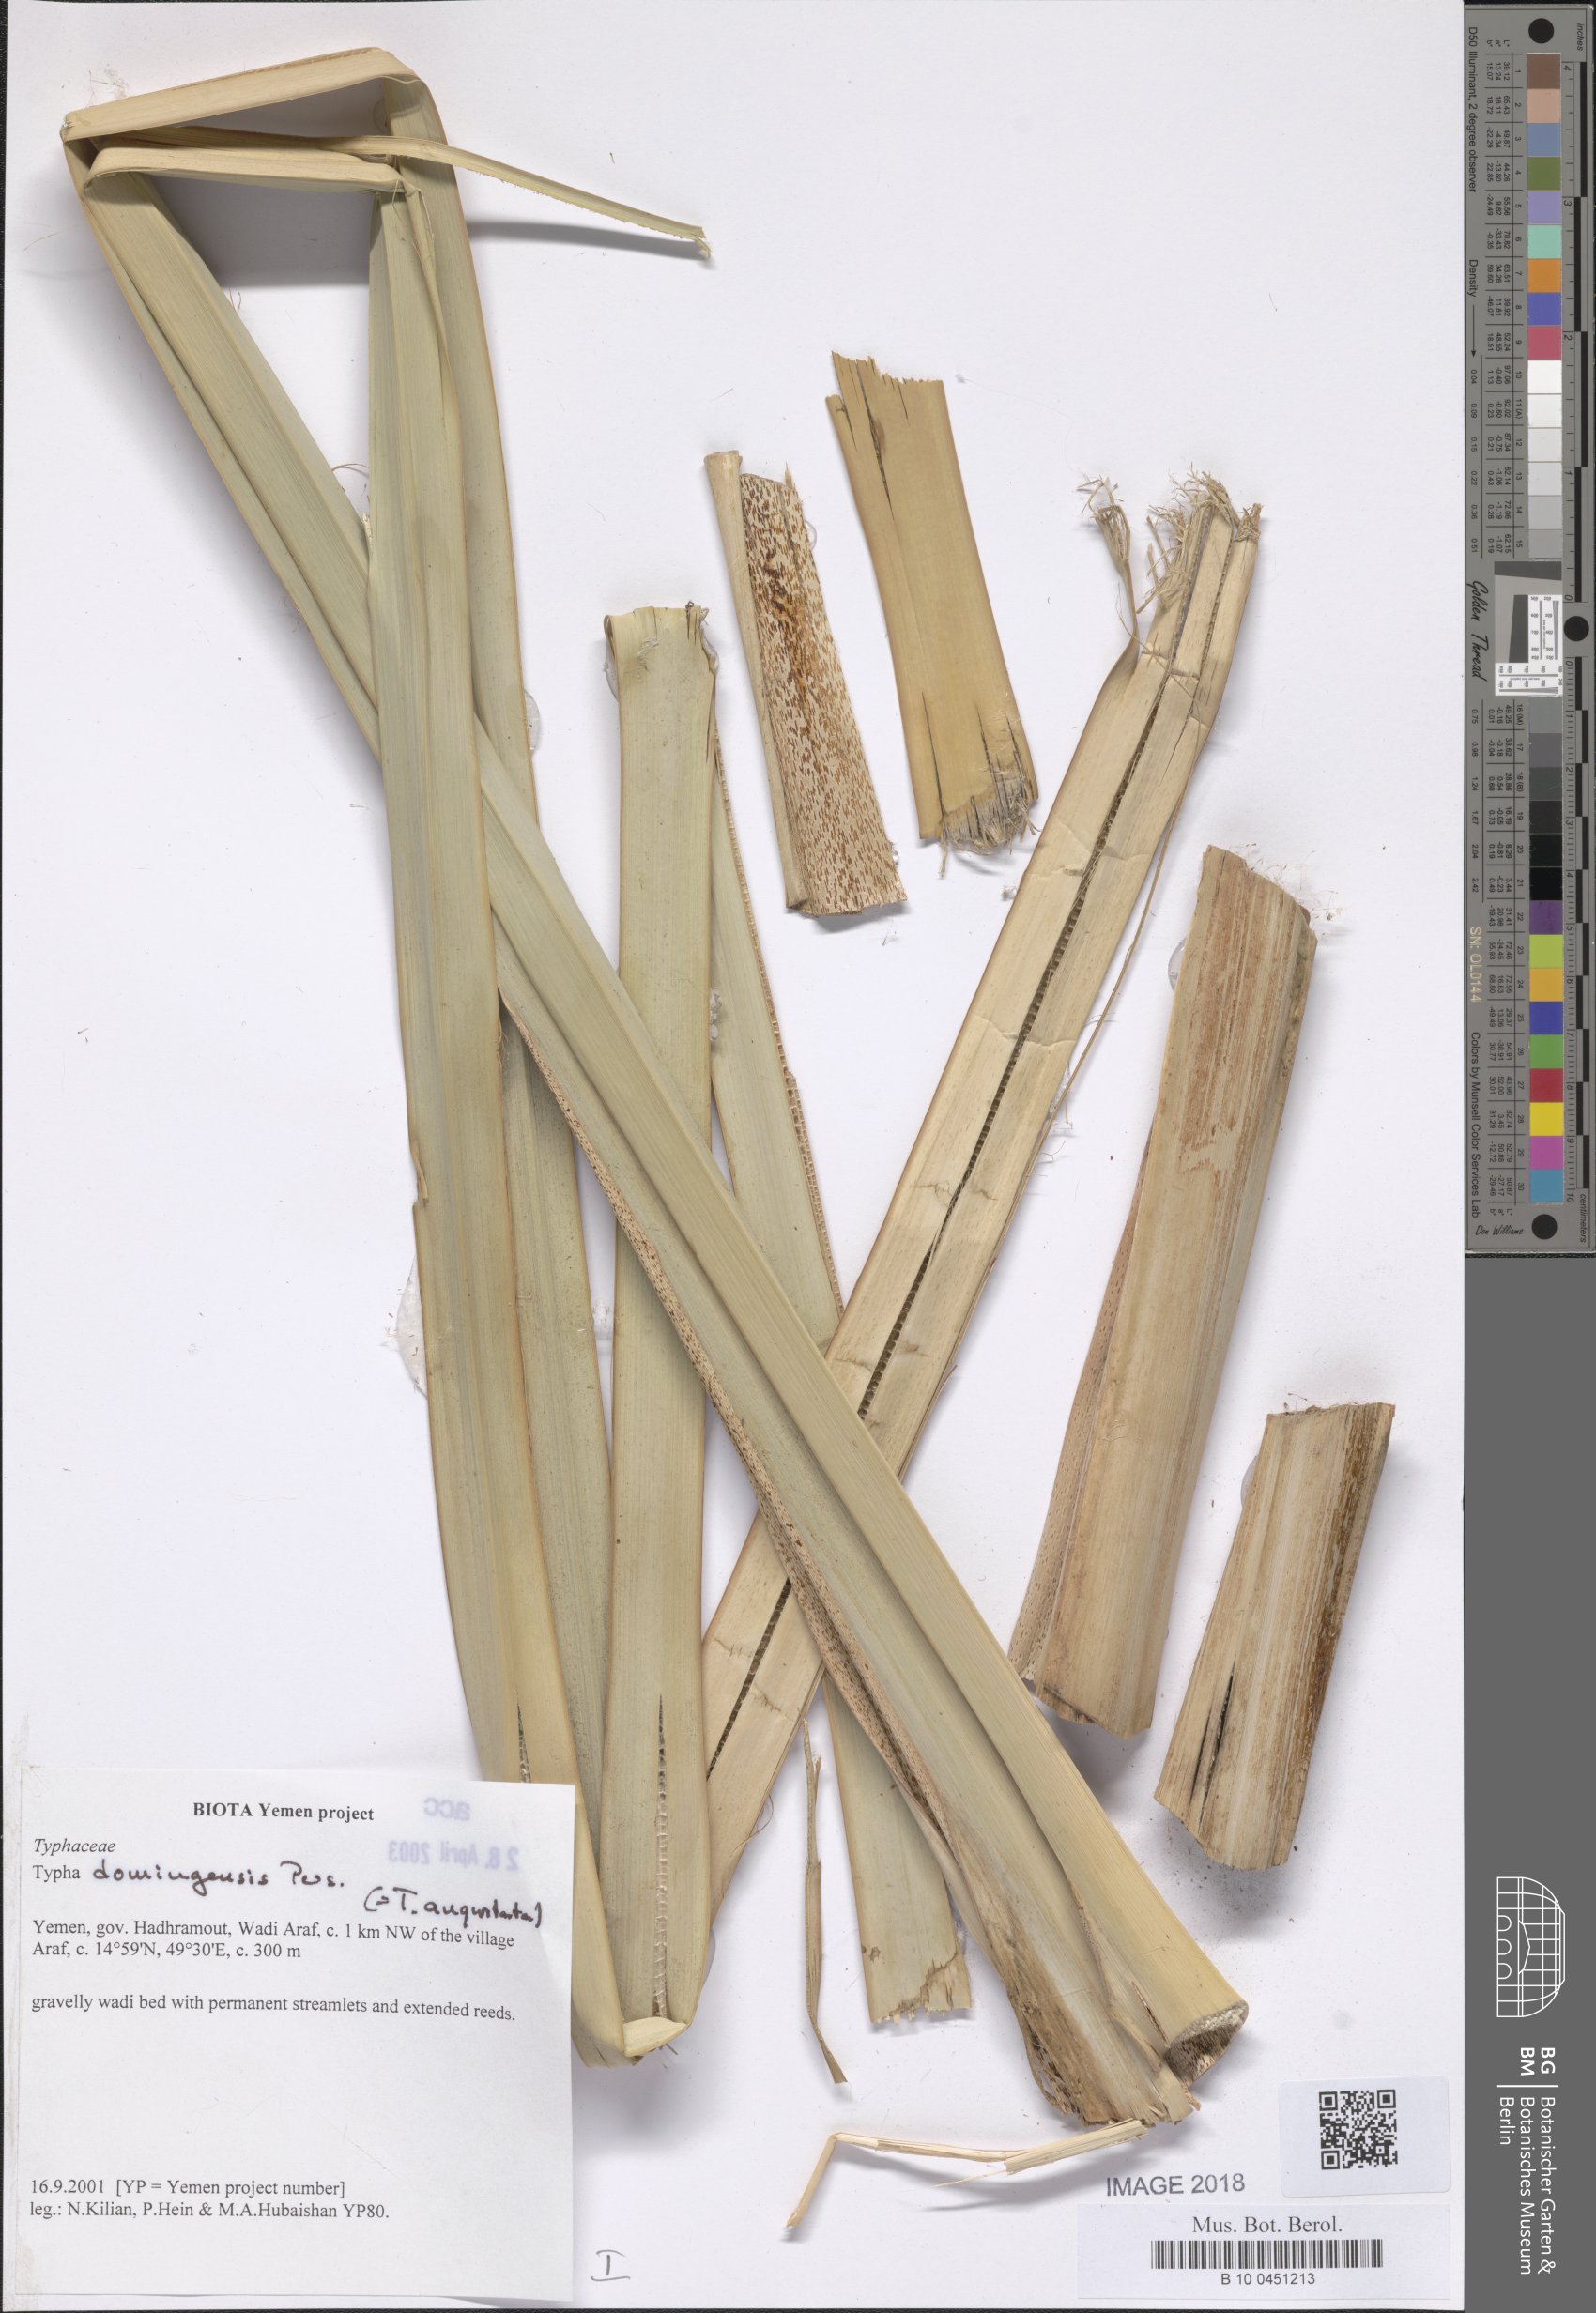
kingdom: Plantae
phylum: Tracheophyta
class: Liliopsida
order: Poales
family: Typhaceae
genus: Typha
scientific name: Typha domingensis
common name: Southern cattail
